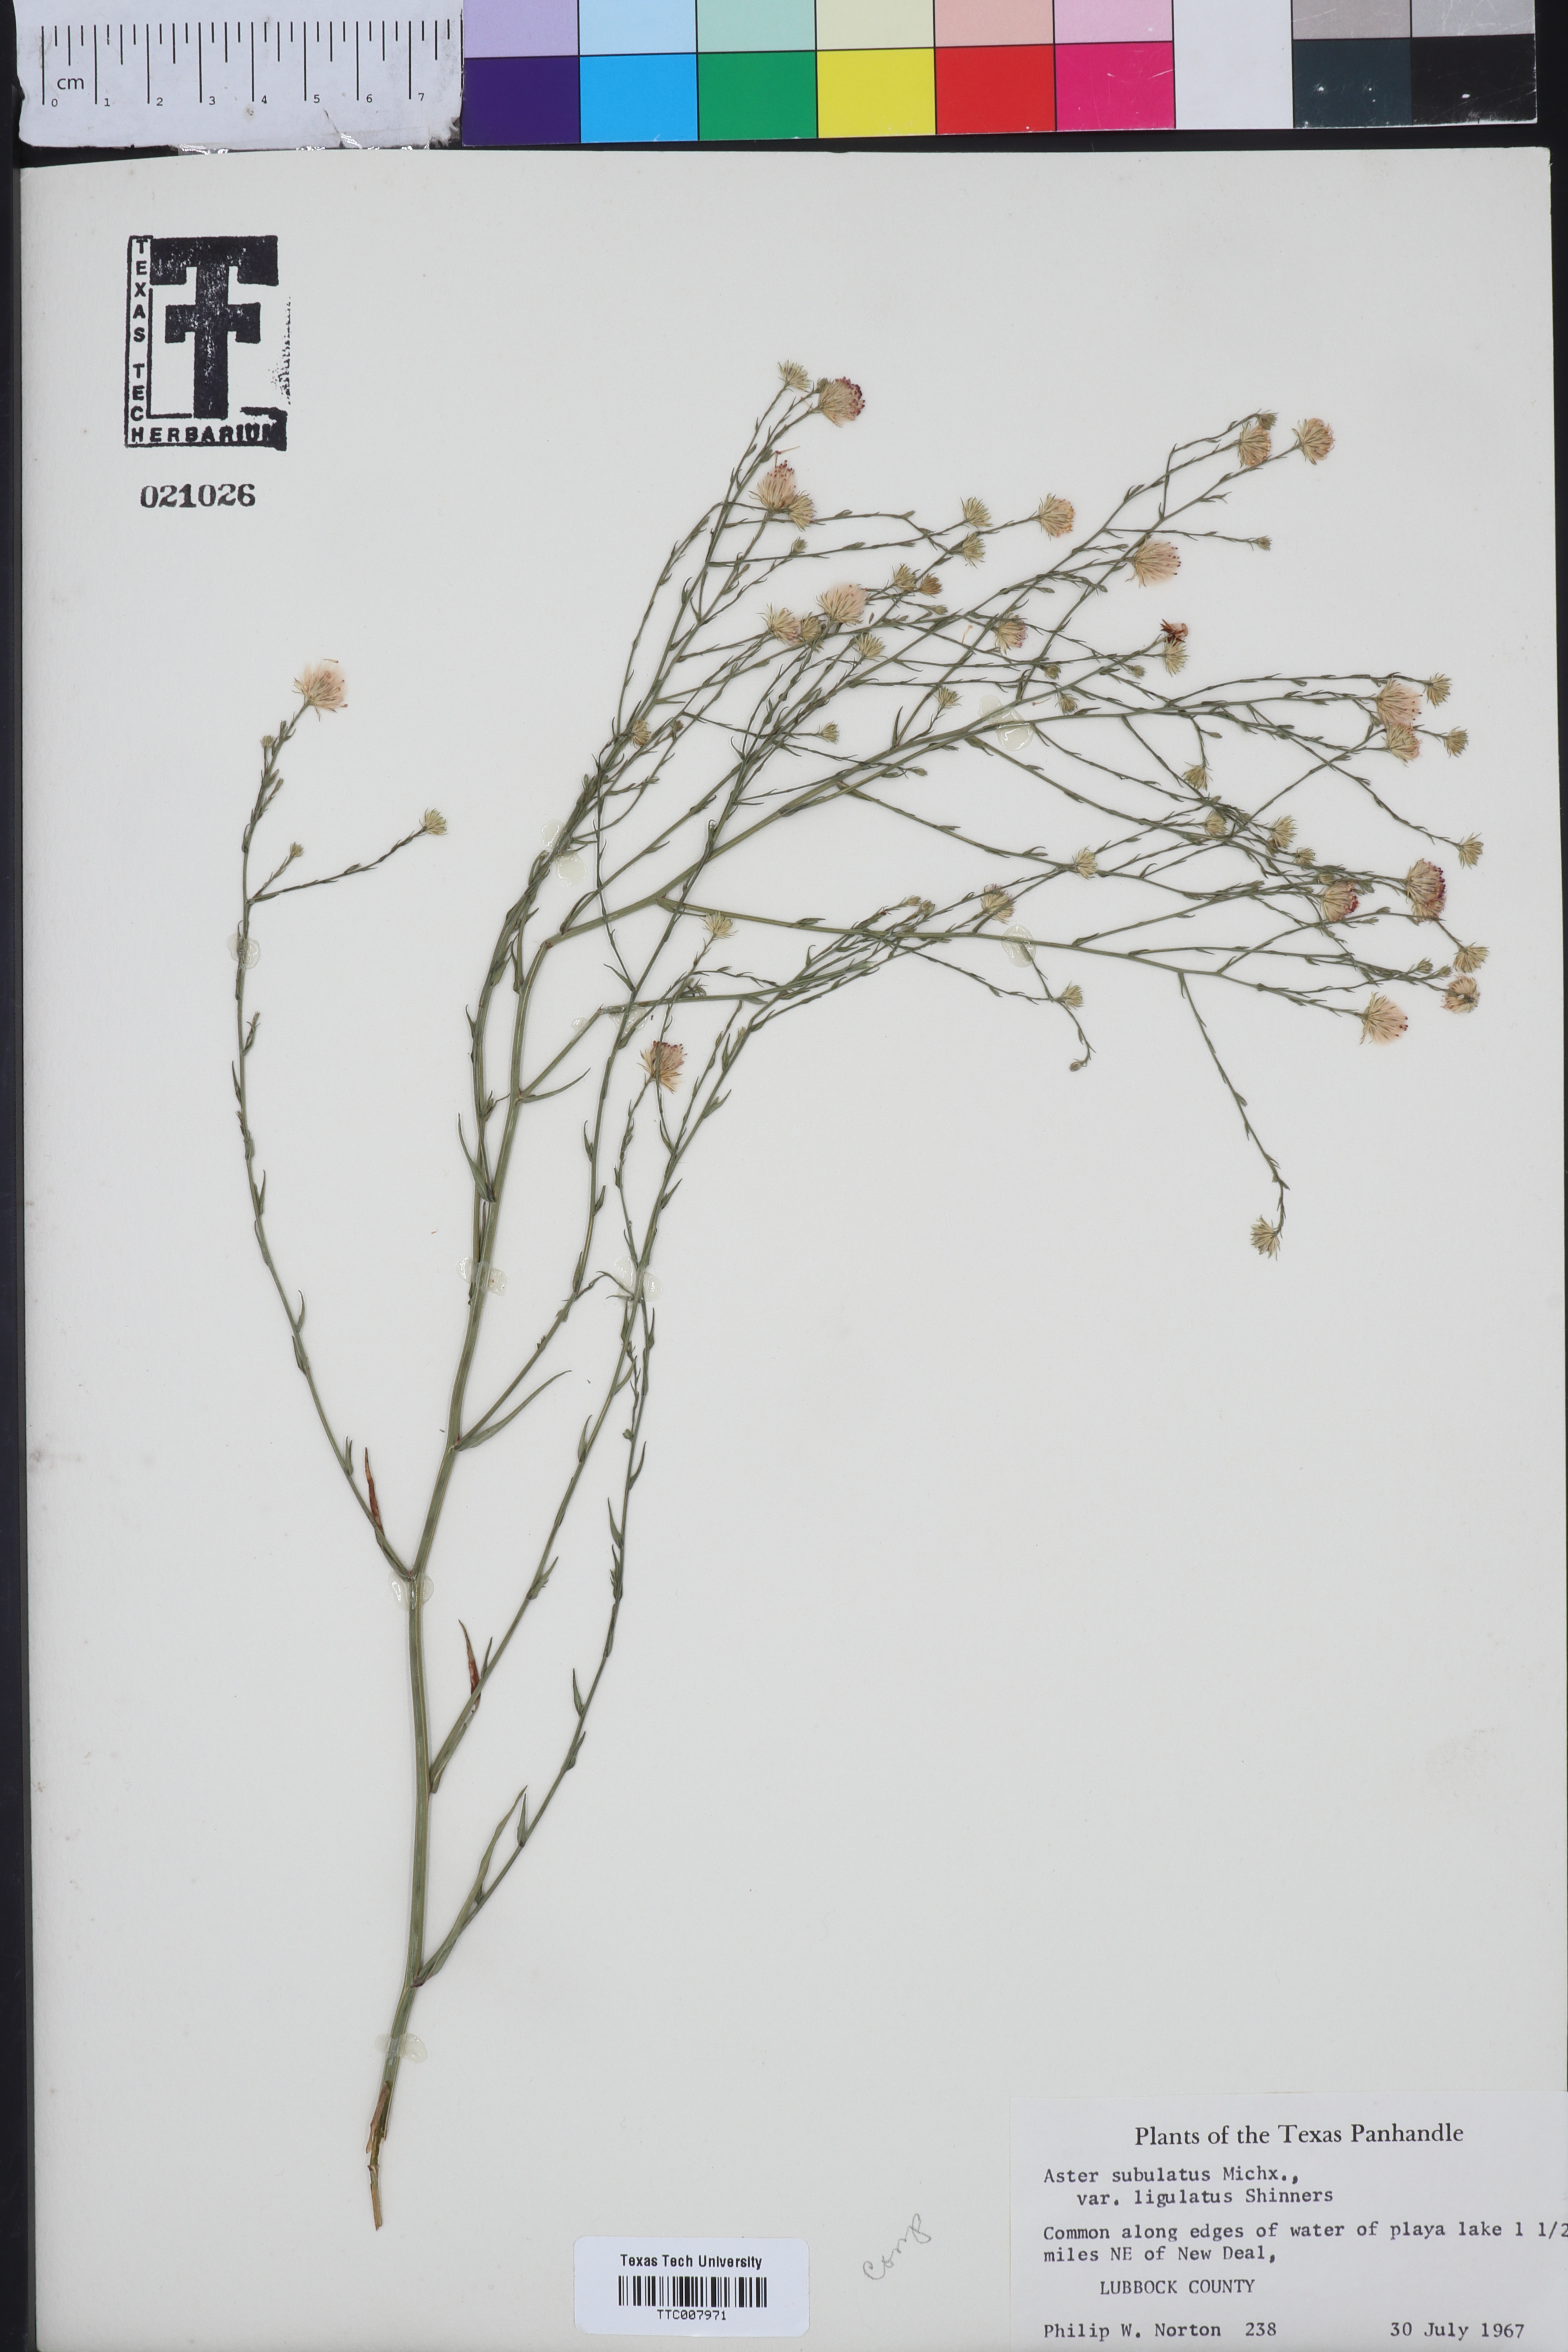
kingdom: Plantae
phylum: Tracheophyta
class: Magnoliopsida
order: Asterales
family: Asteraceae
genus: Symphyotrichum
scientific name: Symphyotrichum divaricatum
